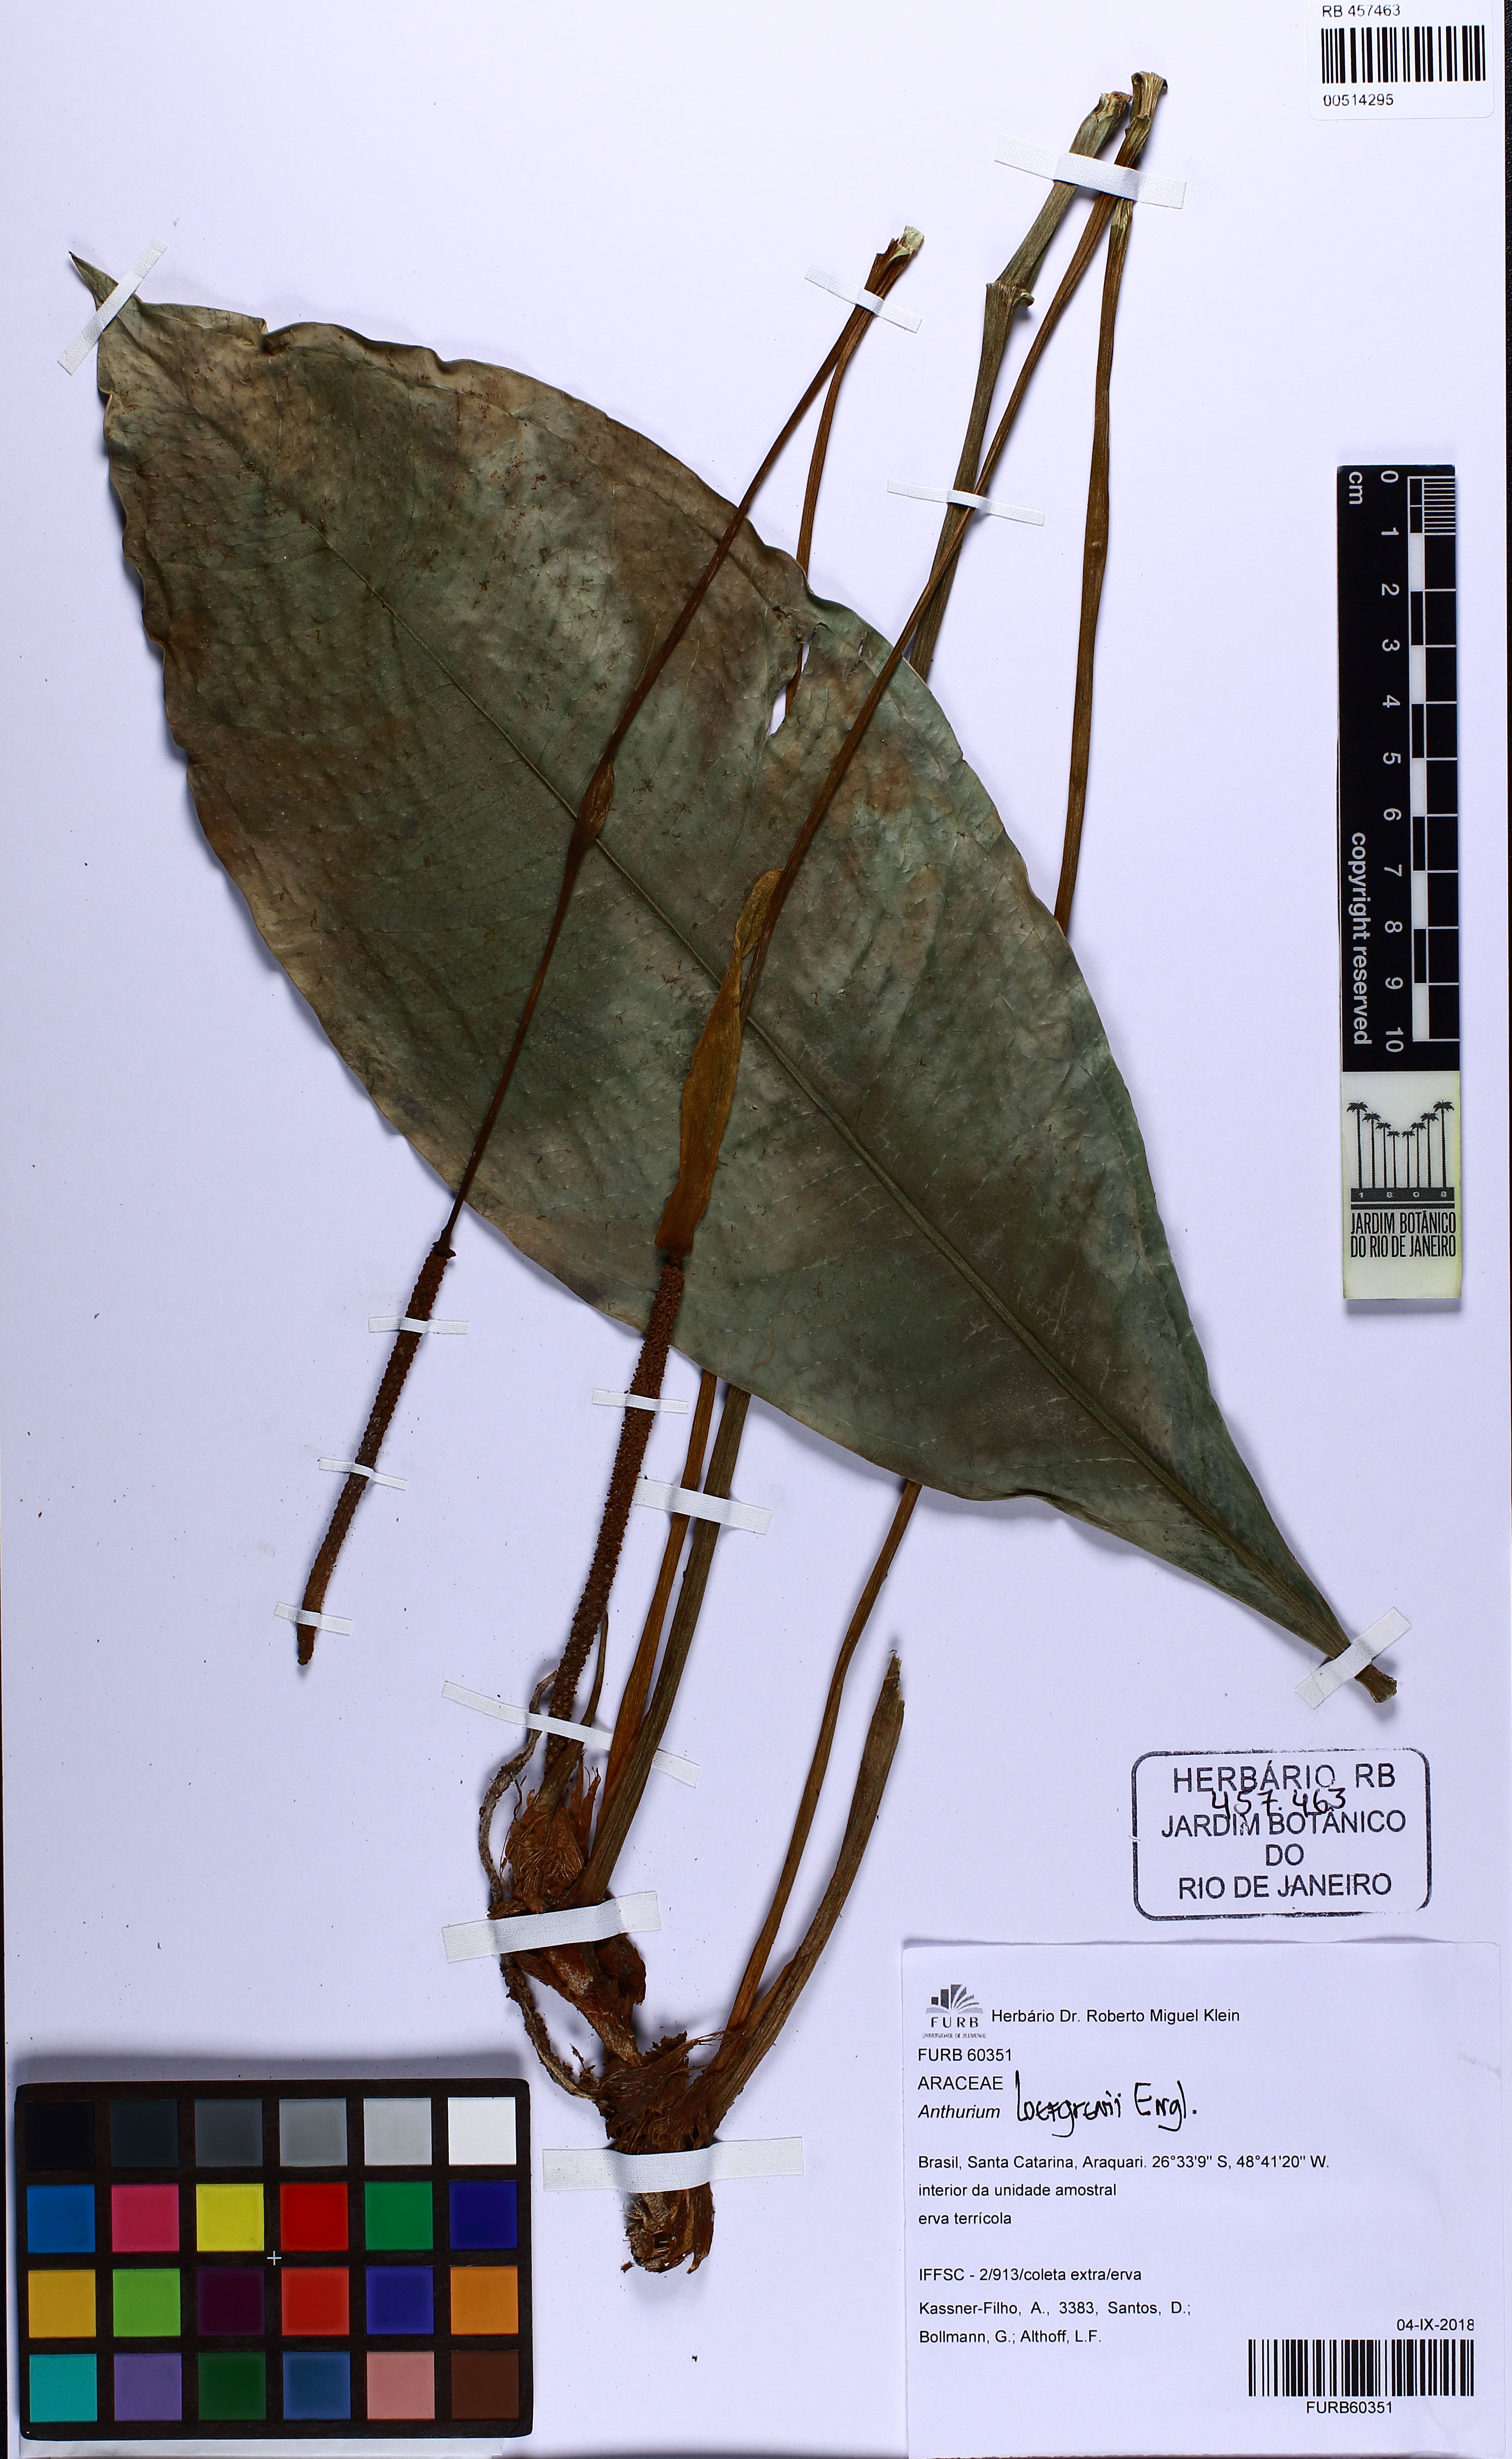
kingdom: Plantae
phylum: Tracheophyta
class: Liliopsida
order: Alismatales
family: Araceae
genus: Anthurium
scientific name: Anthurium loefgrenii
